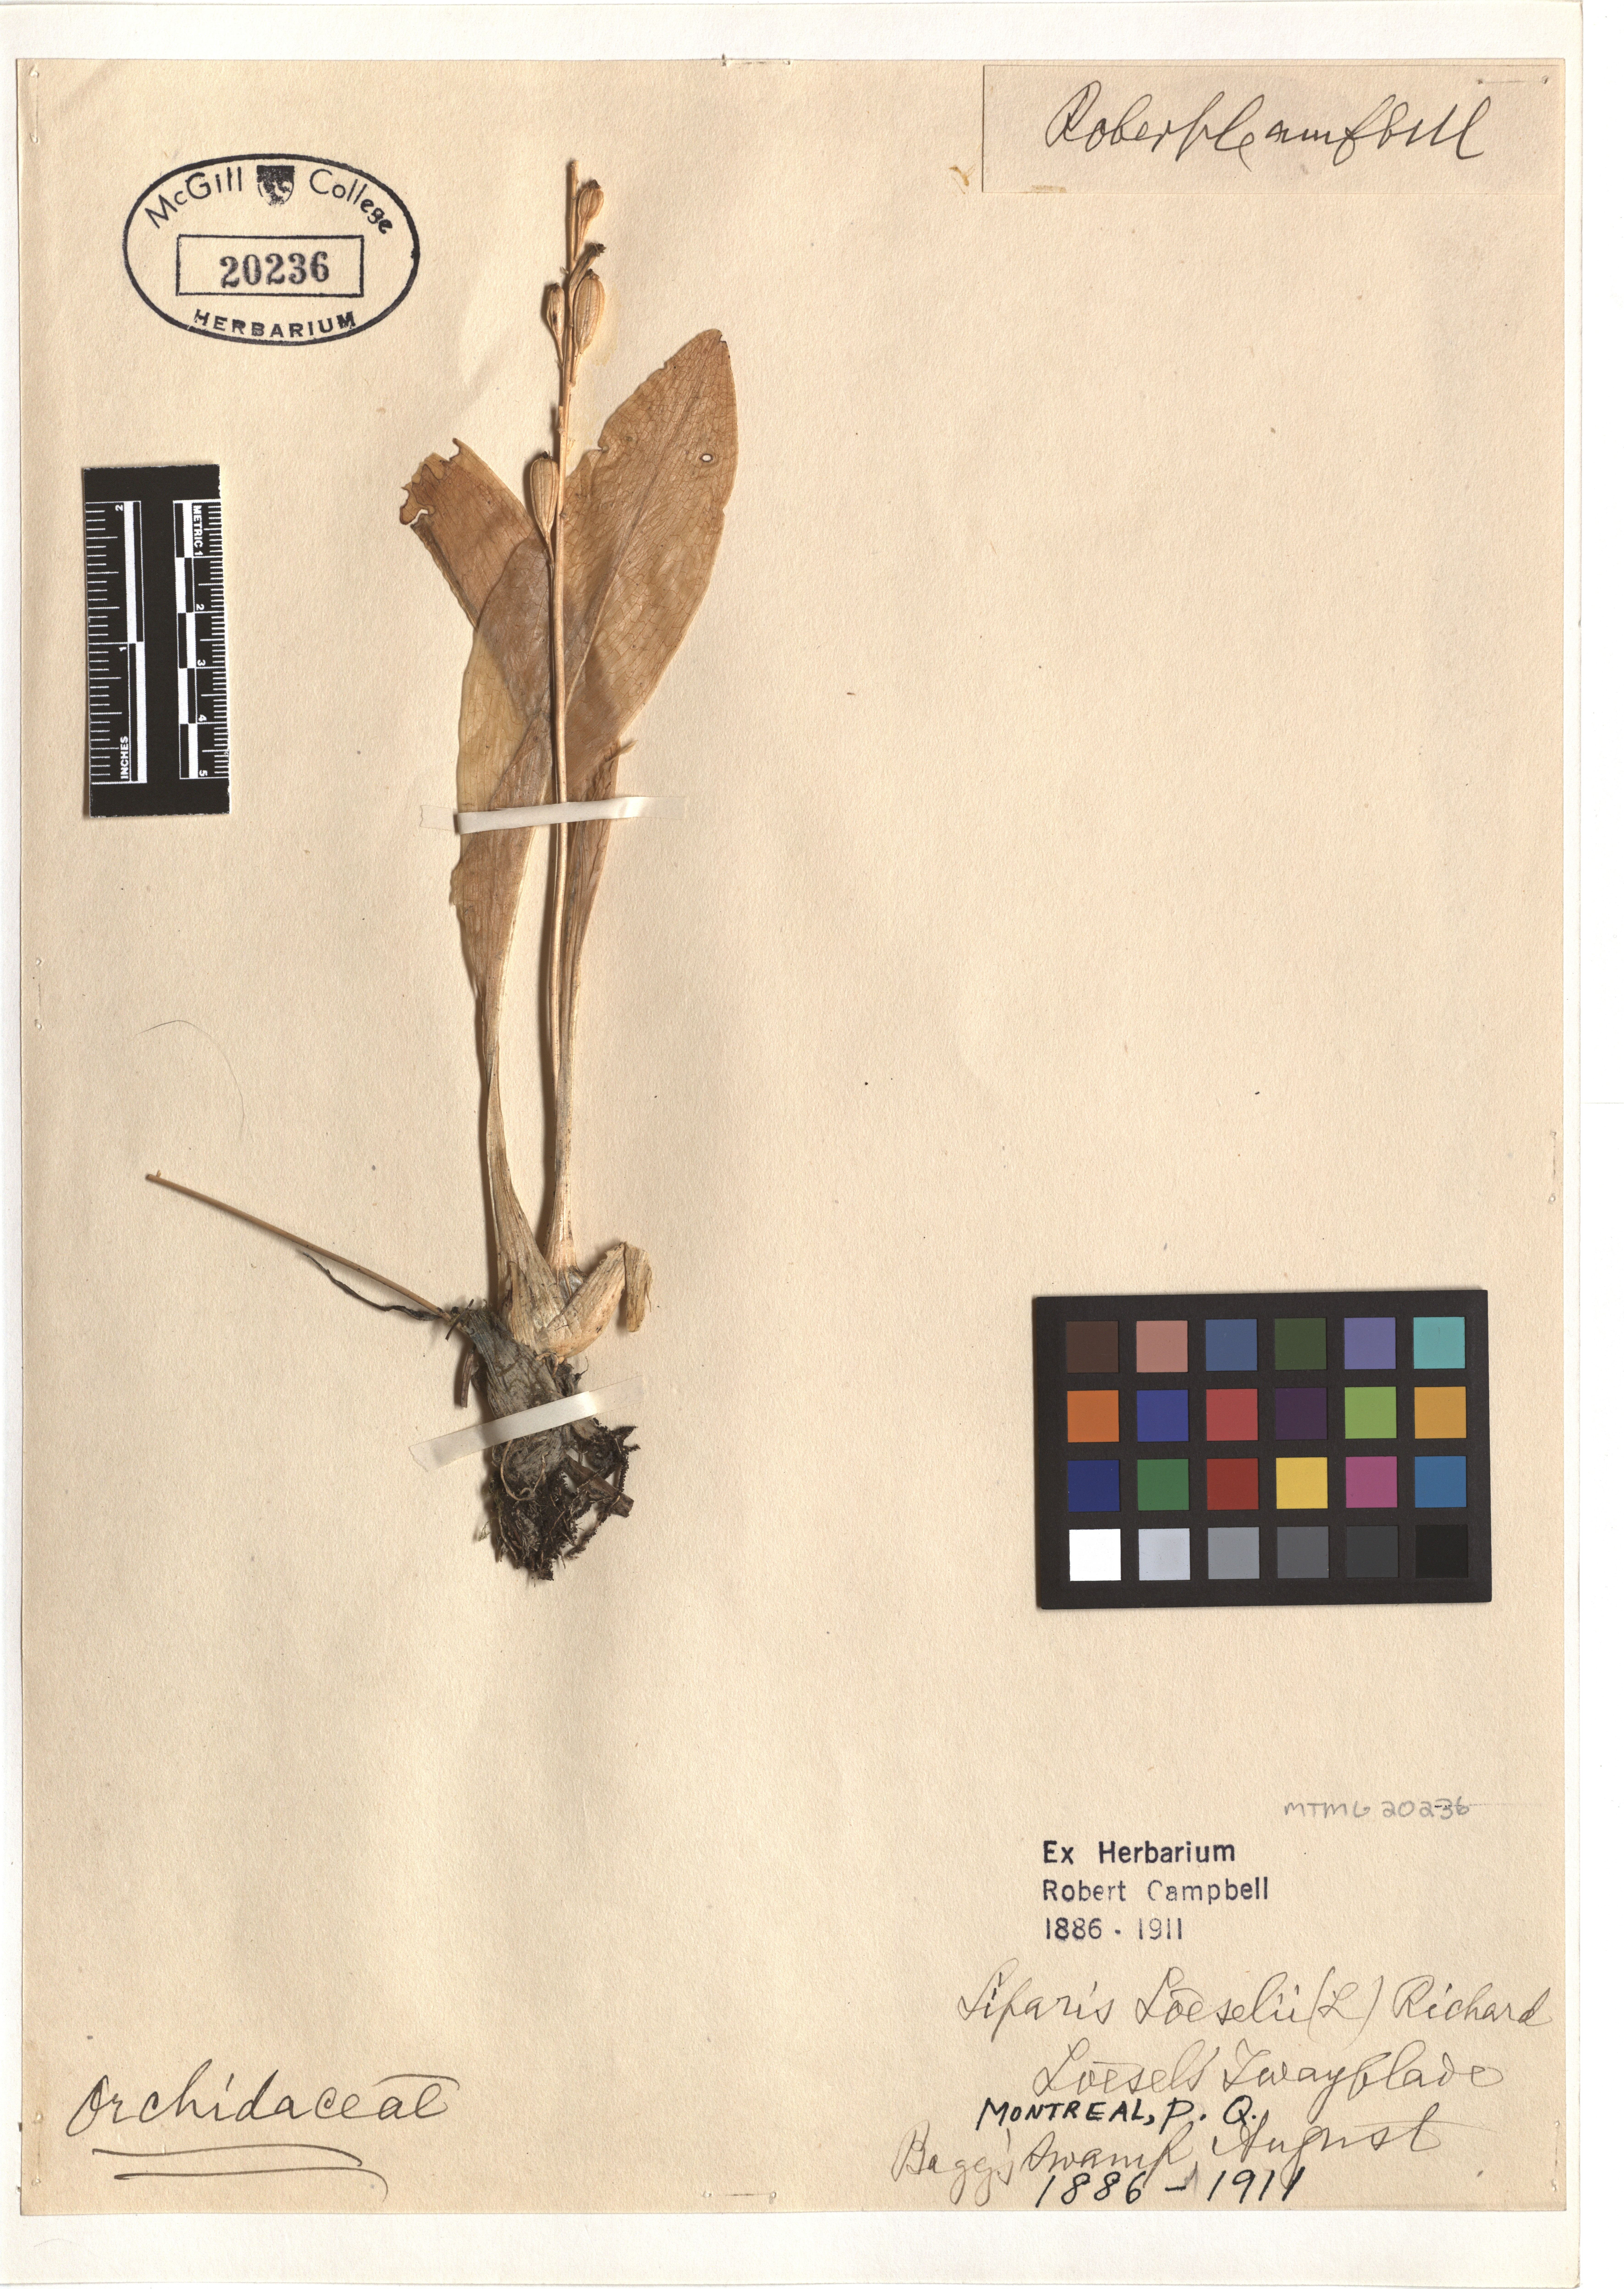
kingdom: Plantae
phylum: Tracheophyta
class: Liliopsida
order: Asparagales
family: Orchidaceae
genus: Neottia
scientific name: Neottia cordata
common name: Lesser twayblade
